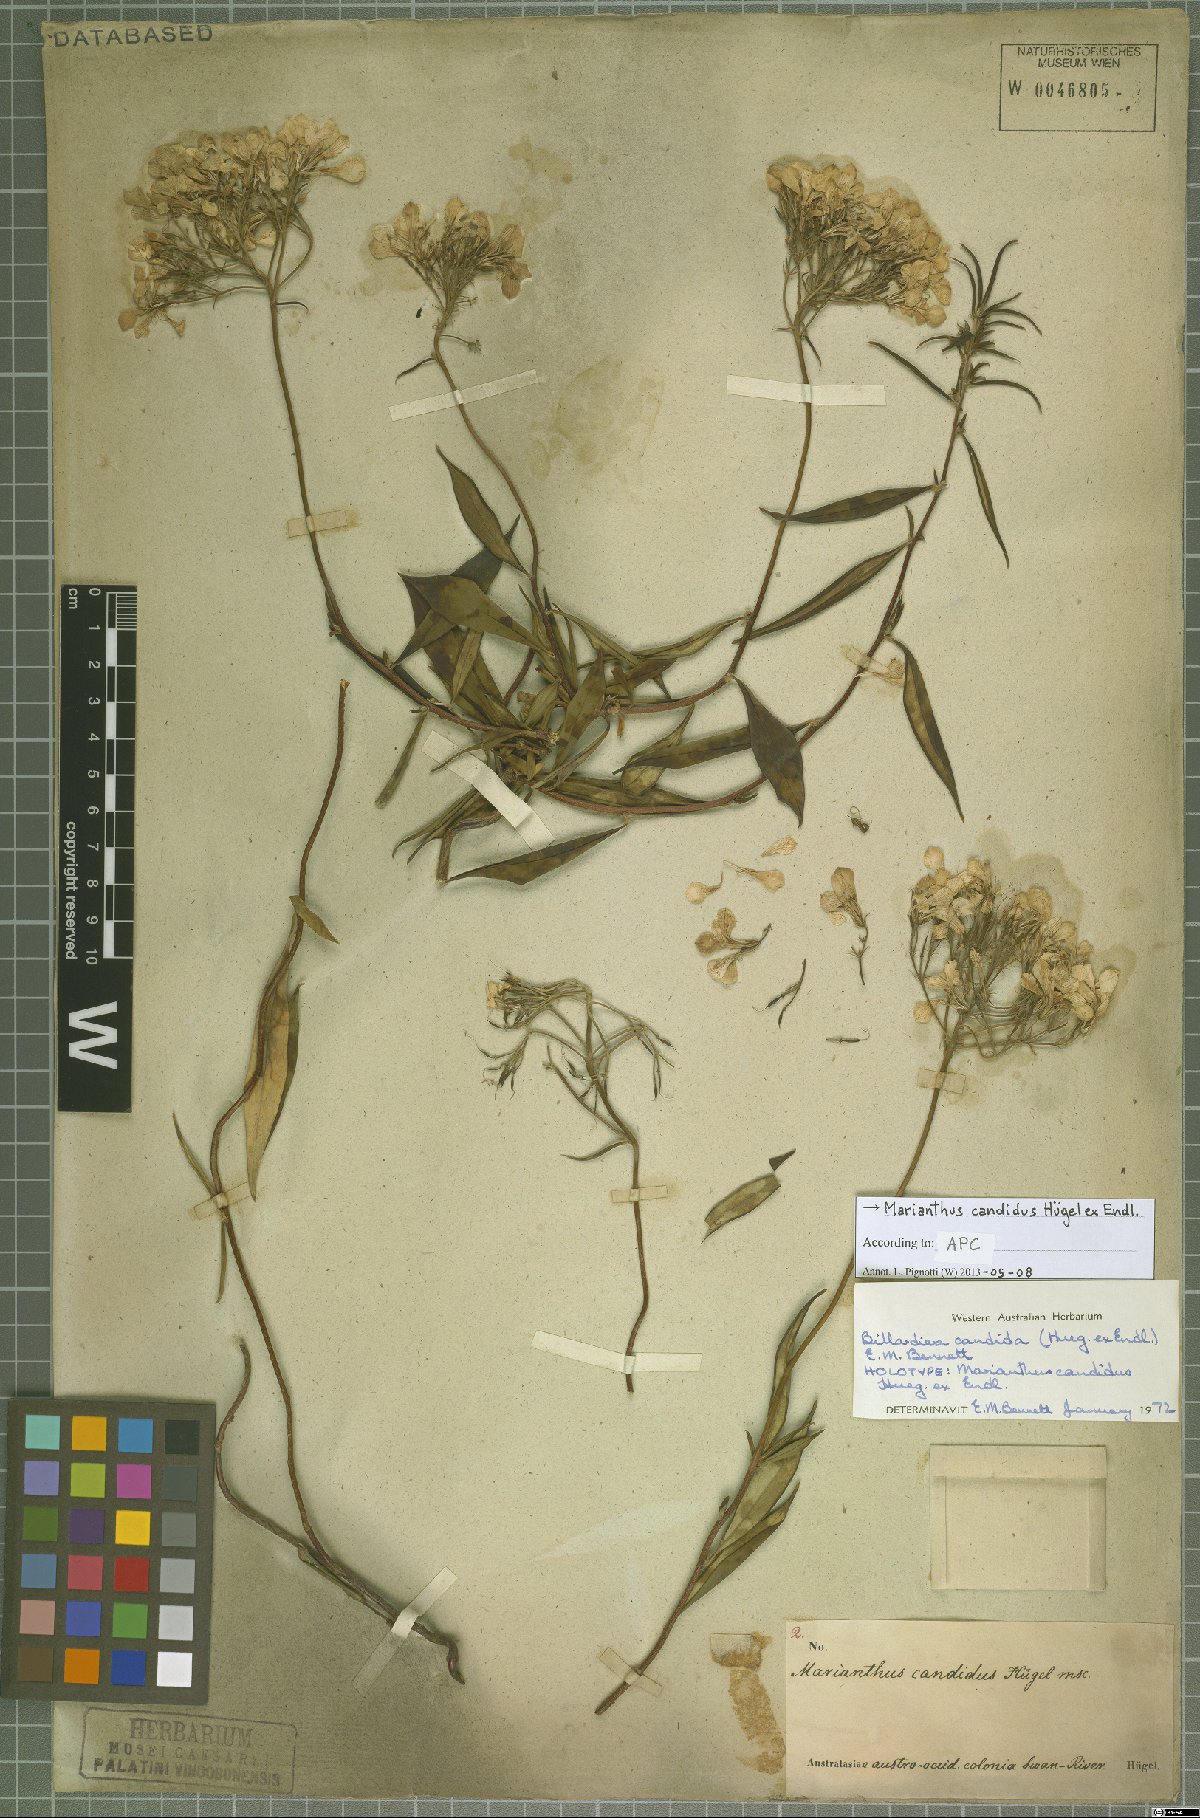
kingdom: Plantae
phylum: Tracheophyta
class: Magnoliopsida
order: Apiales
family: Pittosporaceae
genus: Marianthus
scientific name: Marianthus candidus
